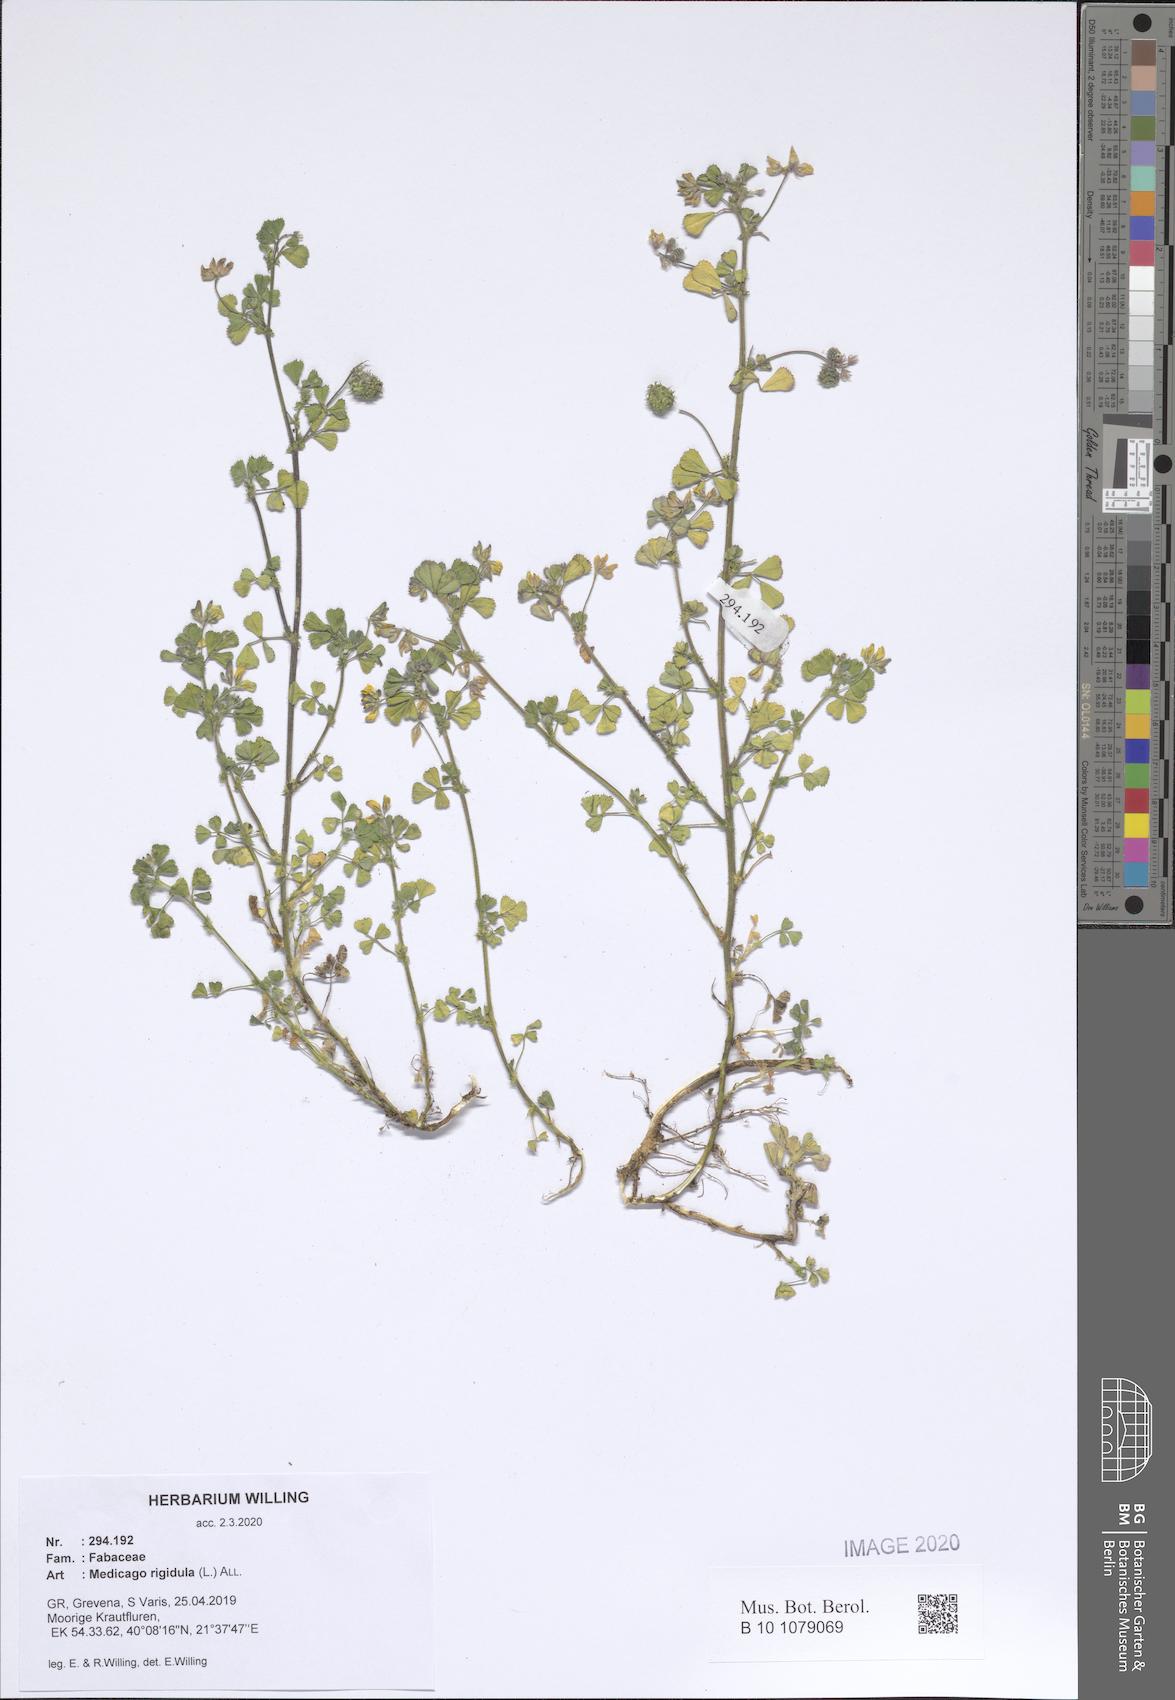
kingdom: Plantae
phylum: Tracheophyta
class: Magnoliopsida
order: Fabales
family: Fabaceae
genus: Medicago
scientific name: Medicago rigidula
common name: Tifton medic
